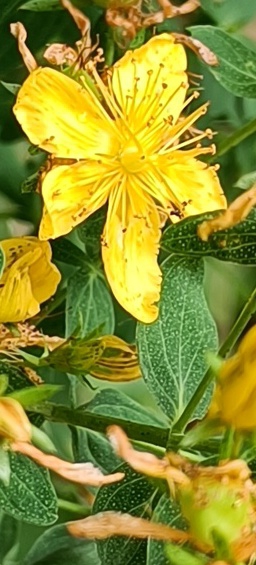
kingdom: Plantae
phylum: Tracheophyta
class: Magnoliopsida
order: Malpighiales
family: Hypericaceae
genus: Hypericum
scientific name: Hypericum perforatum
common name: Prikbladet perikon
